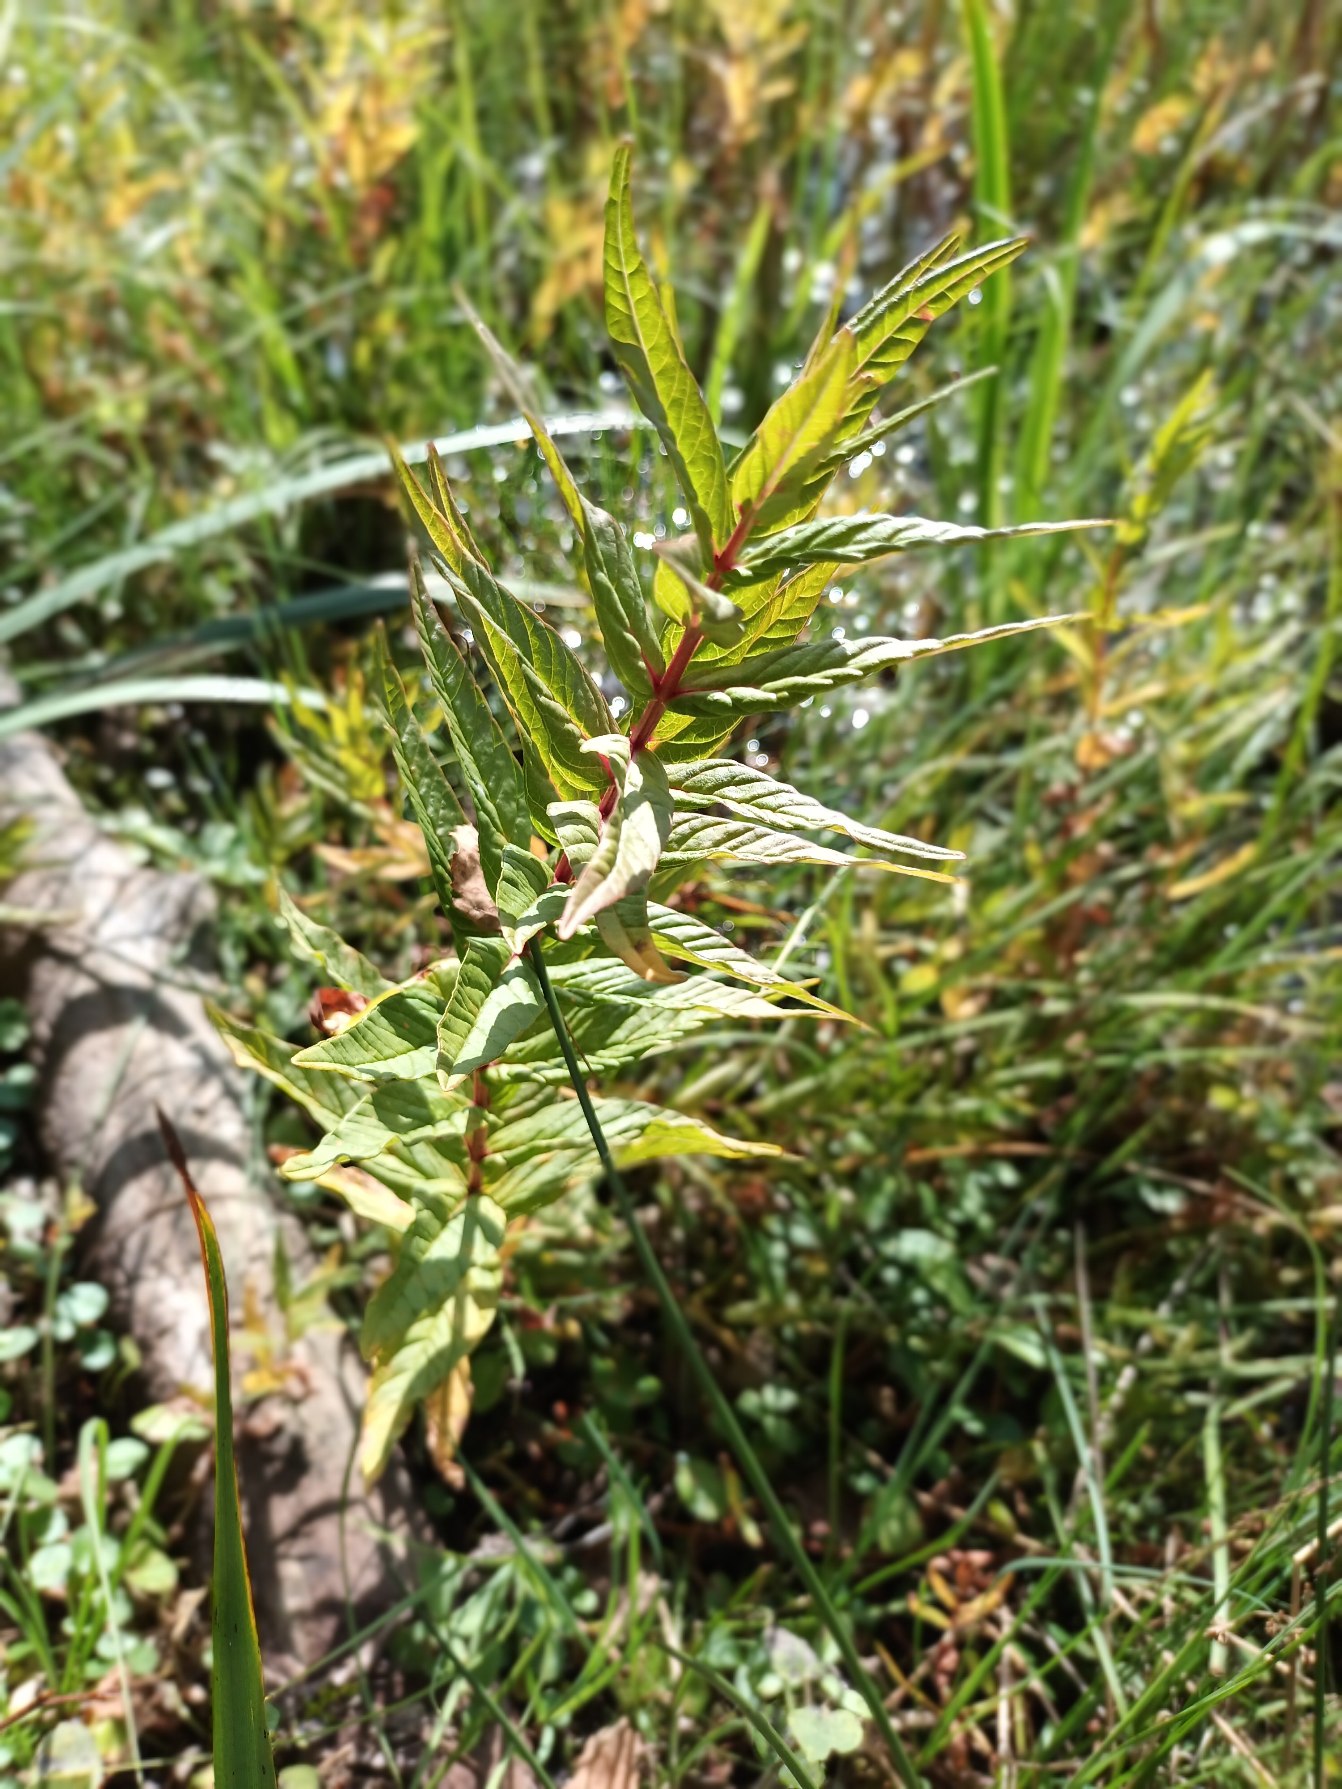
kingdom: Plantae
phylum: Tracheophyta
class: Magnoliopsida
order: Ericales
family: Primulaceae
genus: Lysimachia
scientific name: Lysimachia thyrsiflora
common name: Dusk-fredløs
